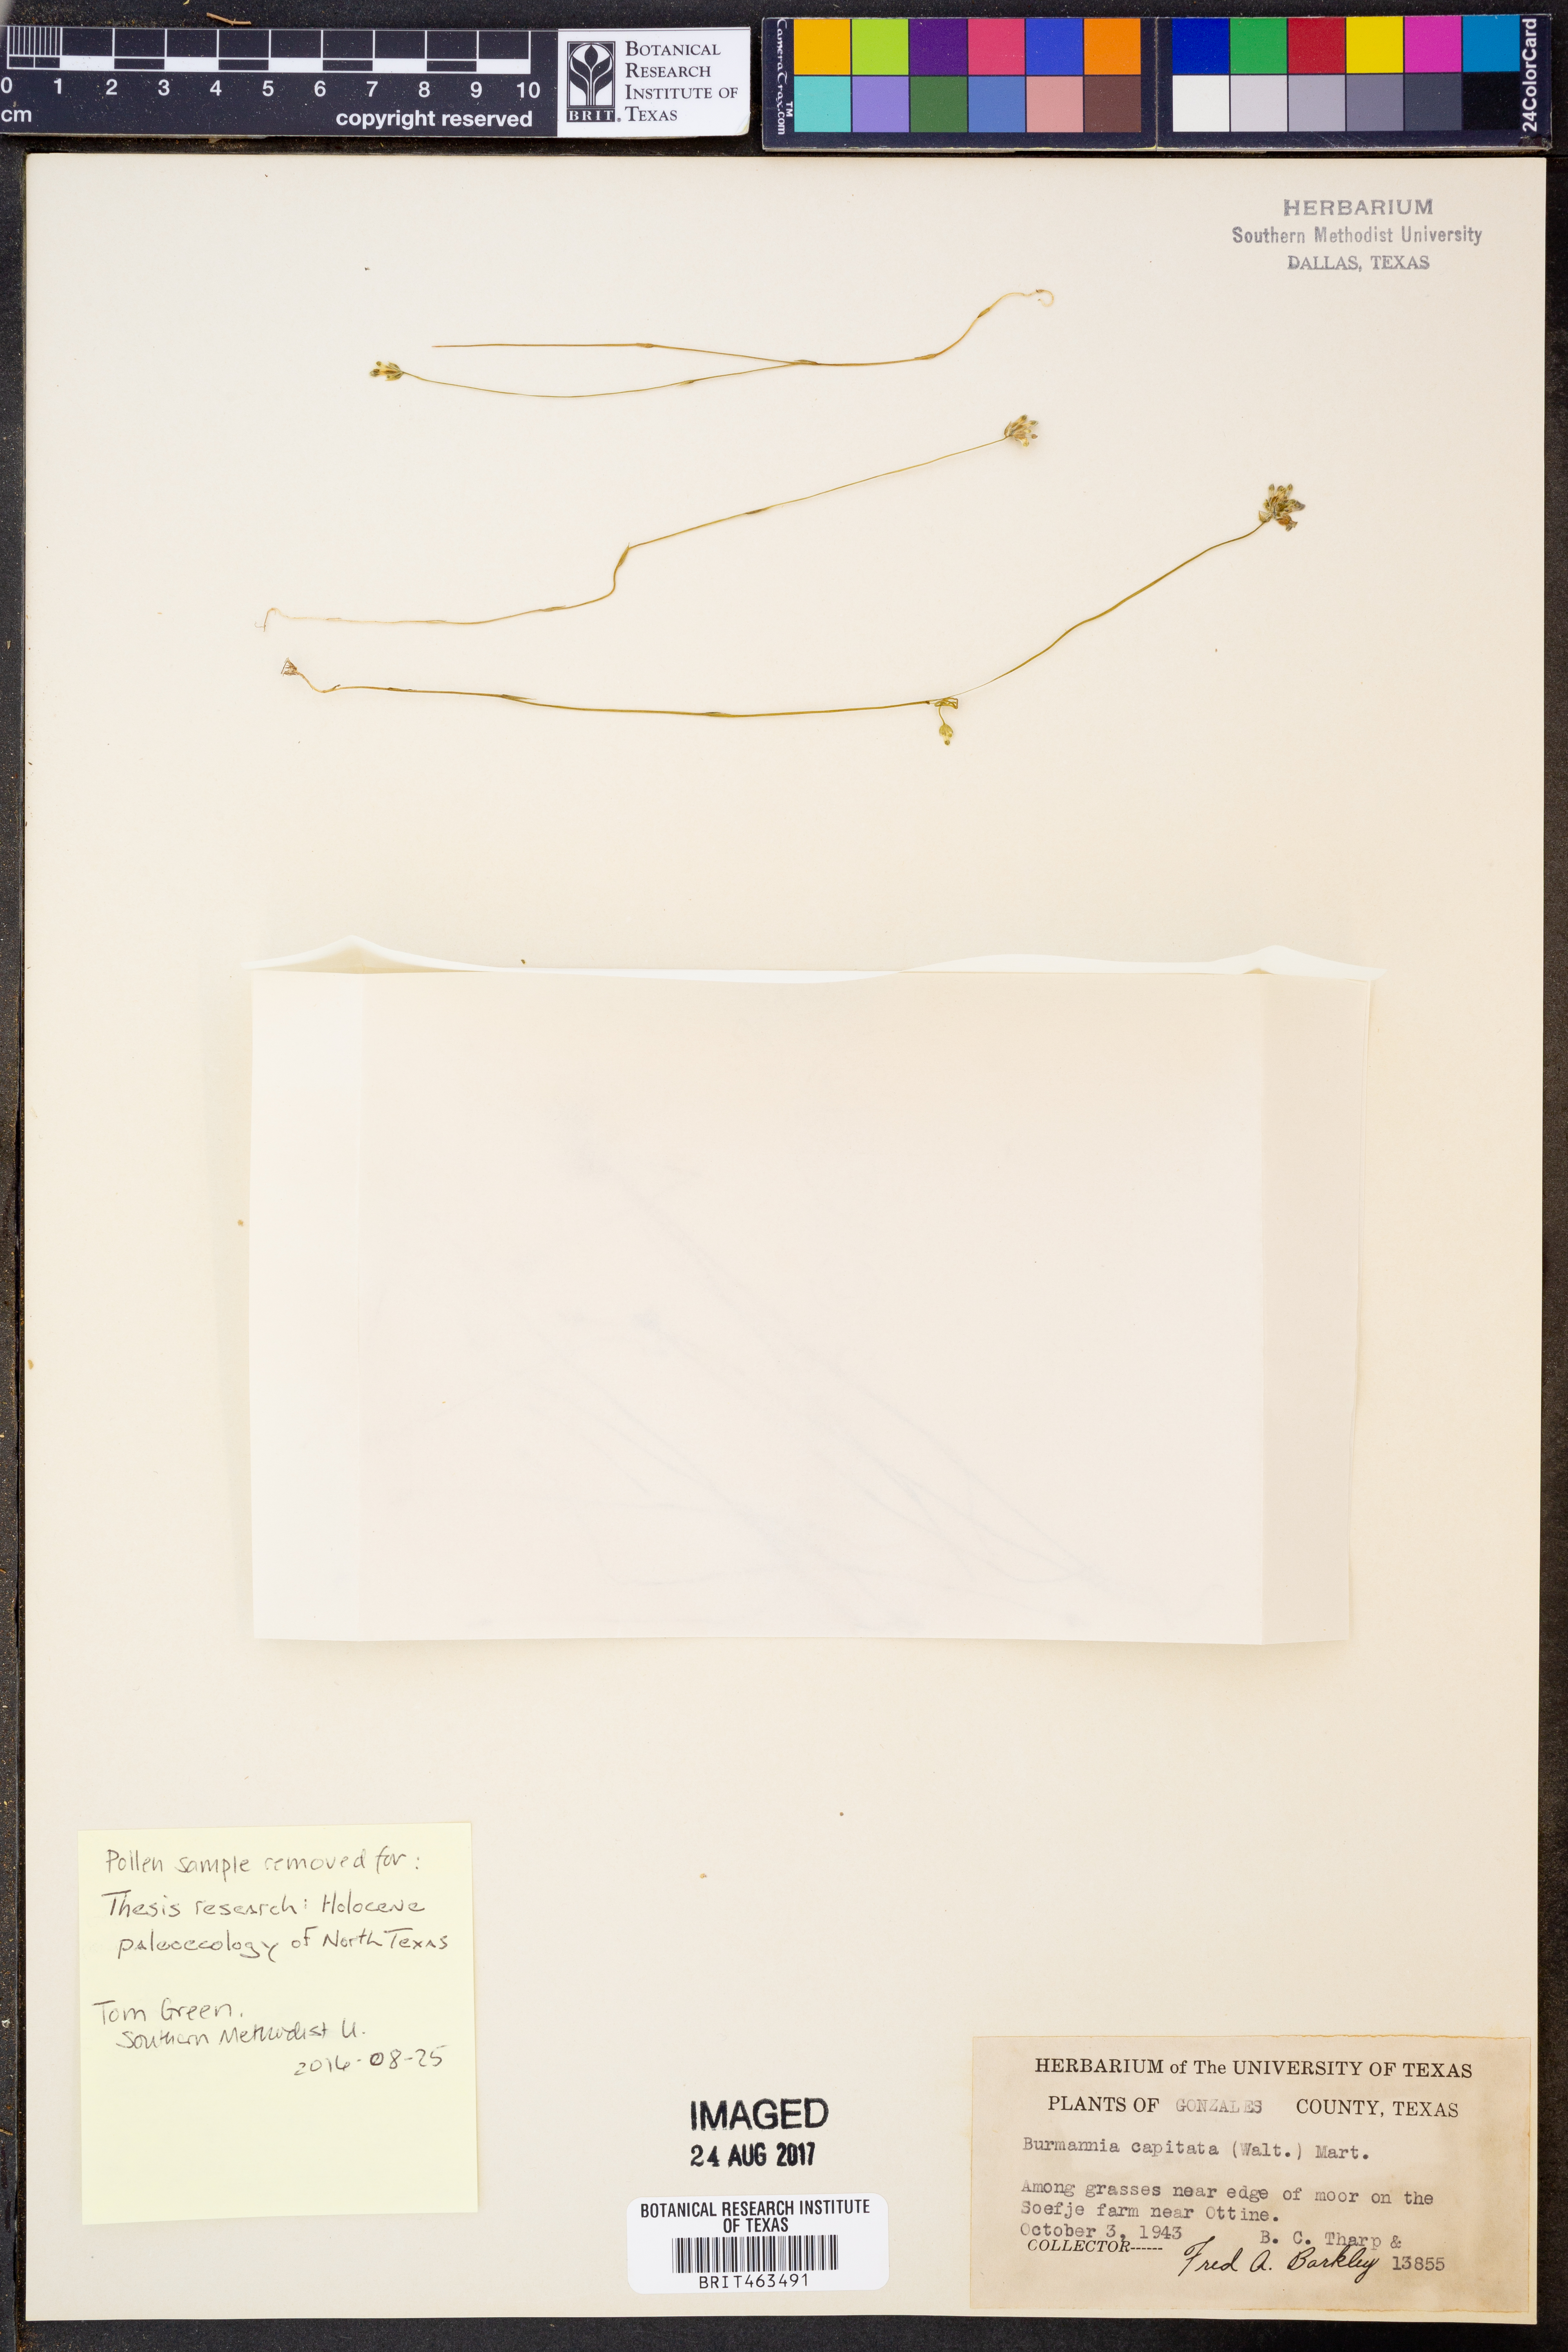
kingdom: Plantae
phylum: Tracheophyta
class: Liliopsida
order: Dioscoreales
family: Burmanniaceae
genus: Burmannia
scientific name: Burmannia capitata
